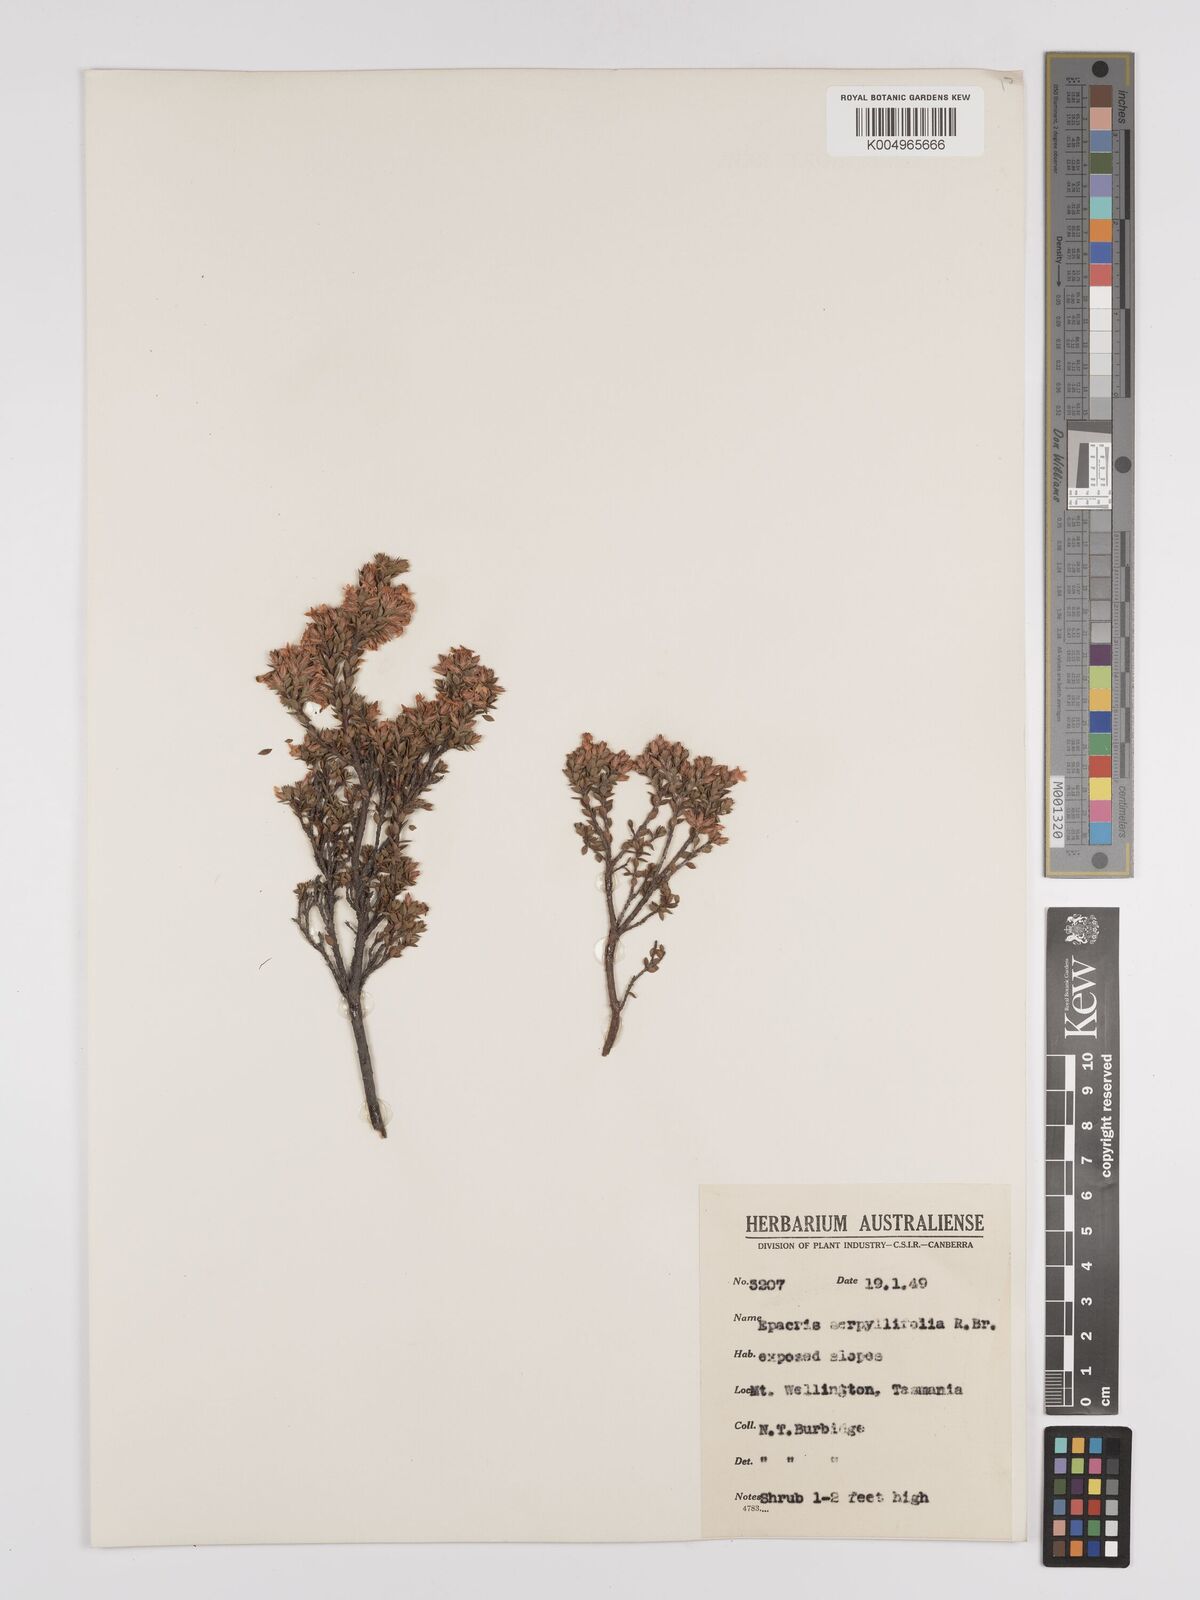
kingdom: Plantae
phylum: Tracheophyta
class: Magnoliopsida
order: Ericales
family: Ericaceae
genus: Epacris
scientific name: Epacris serpyllifolia
